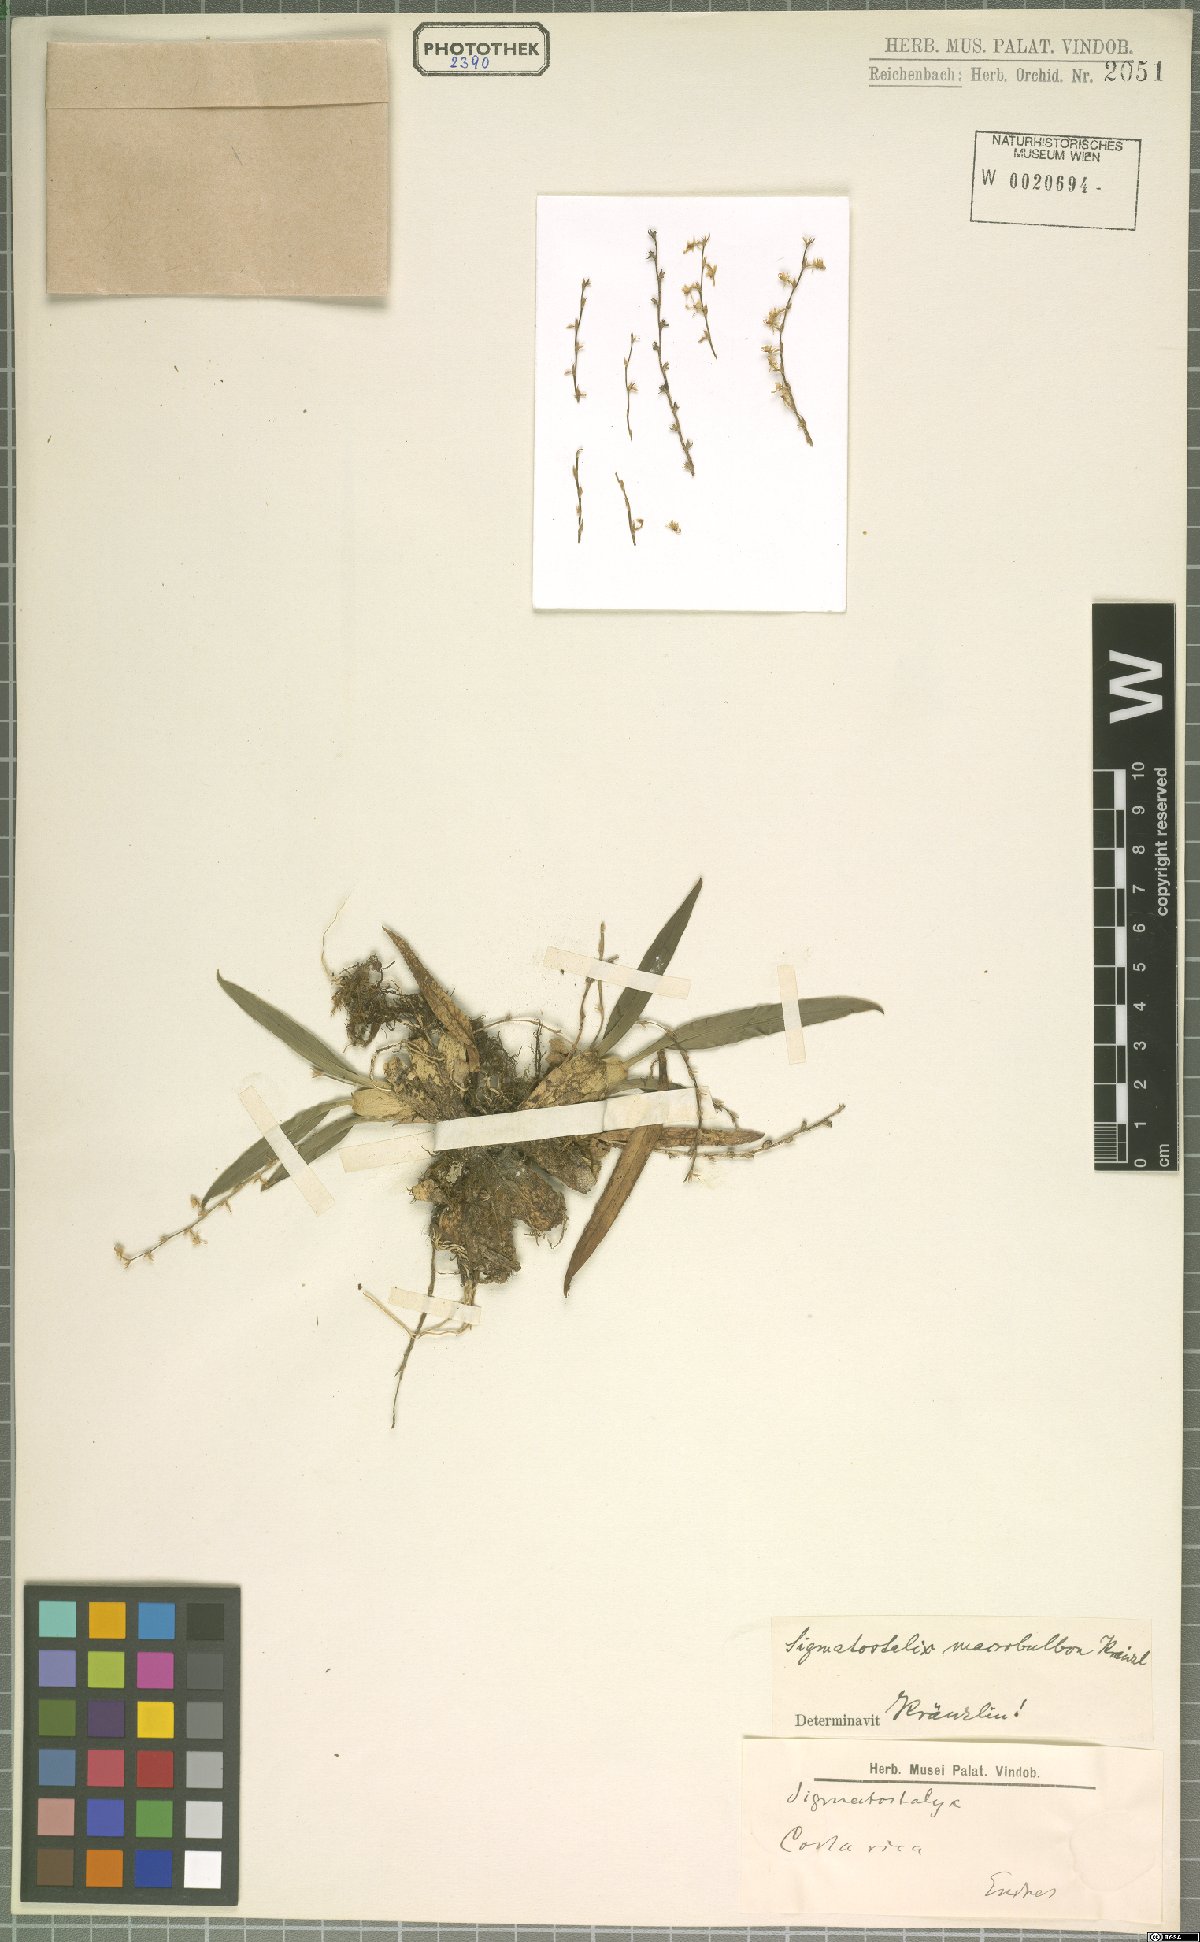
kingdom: Plantae
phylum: Tracheophyta
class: Liliopsida
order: Asparagales
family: Orchidaceae
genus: Oncidium
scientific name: Oncidium macrobulbon
